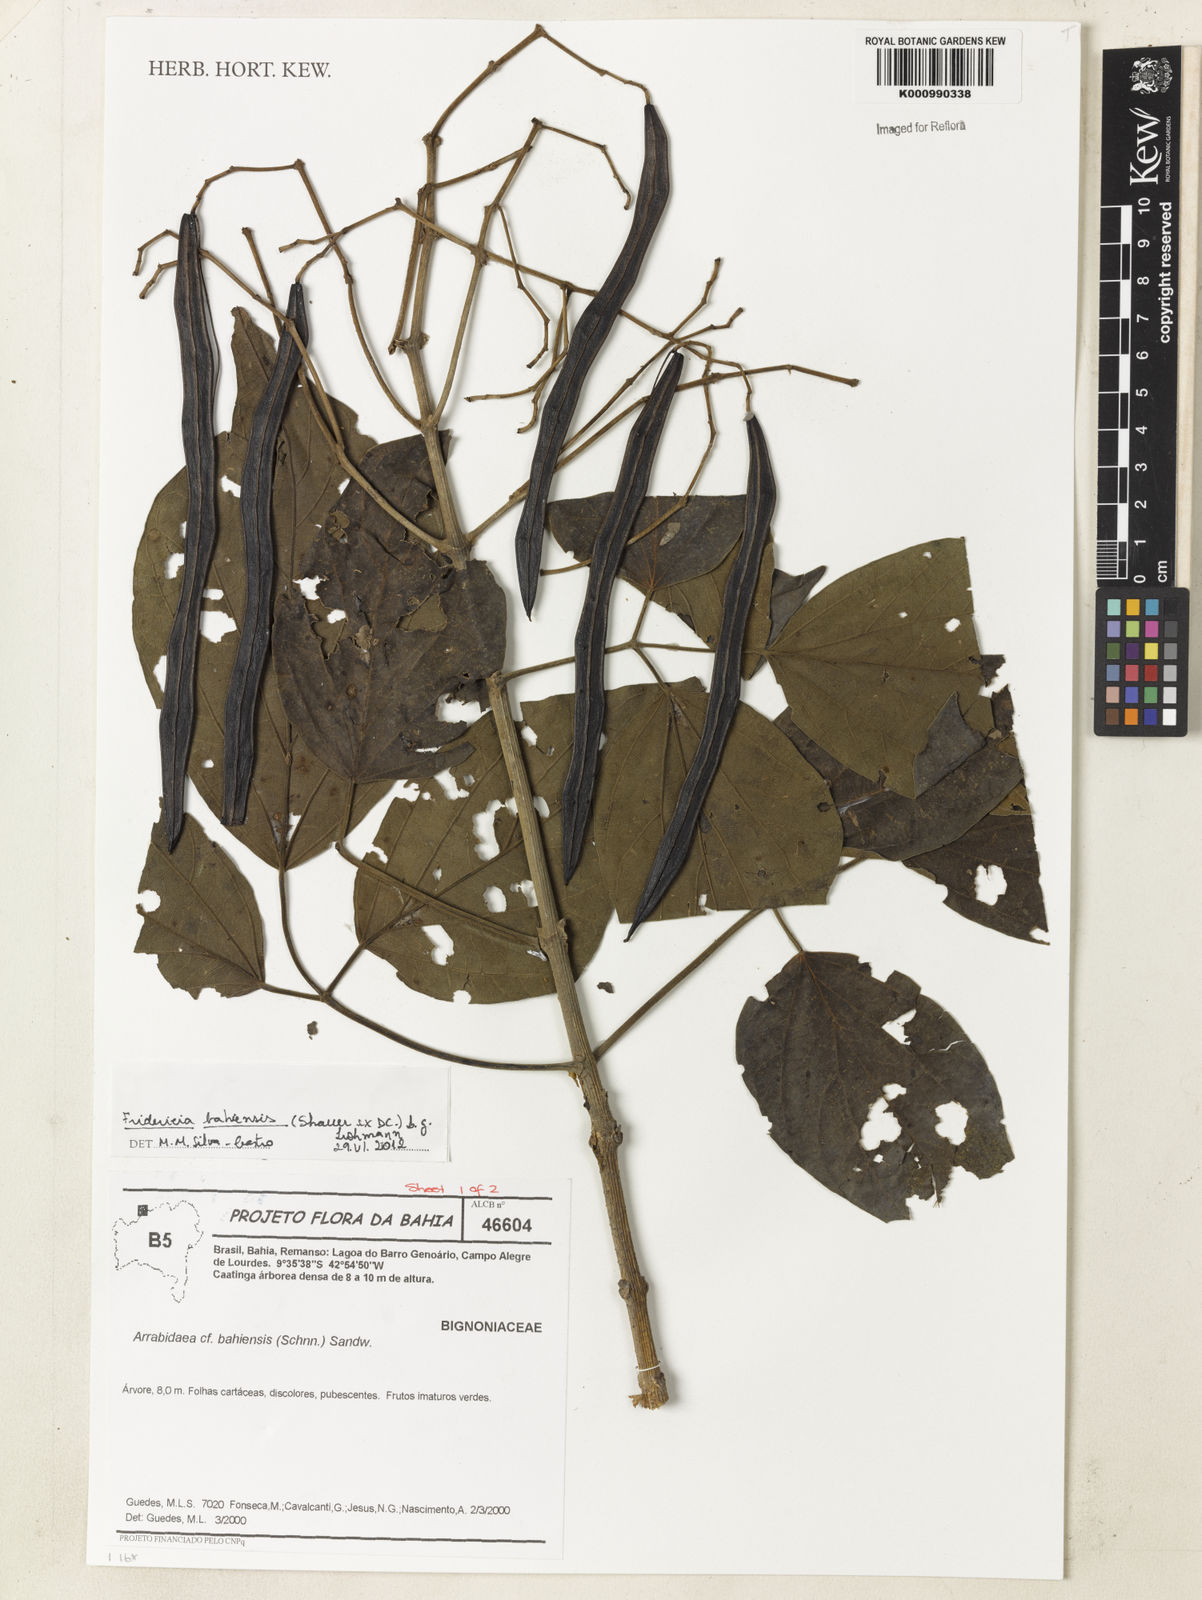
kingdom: Plantae
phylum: Tracheophyta
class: Magnoliopsida
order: Lamiales
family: Bignoniaceae
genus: Fridericia
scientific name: Fridericia bahiensis
